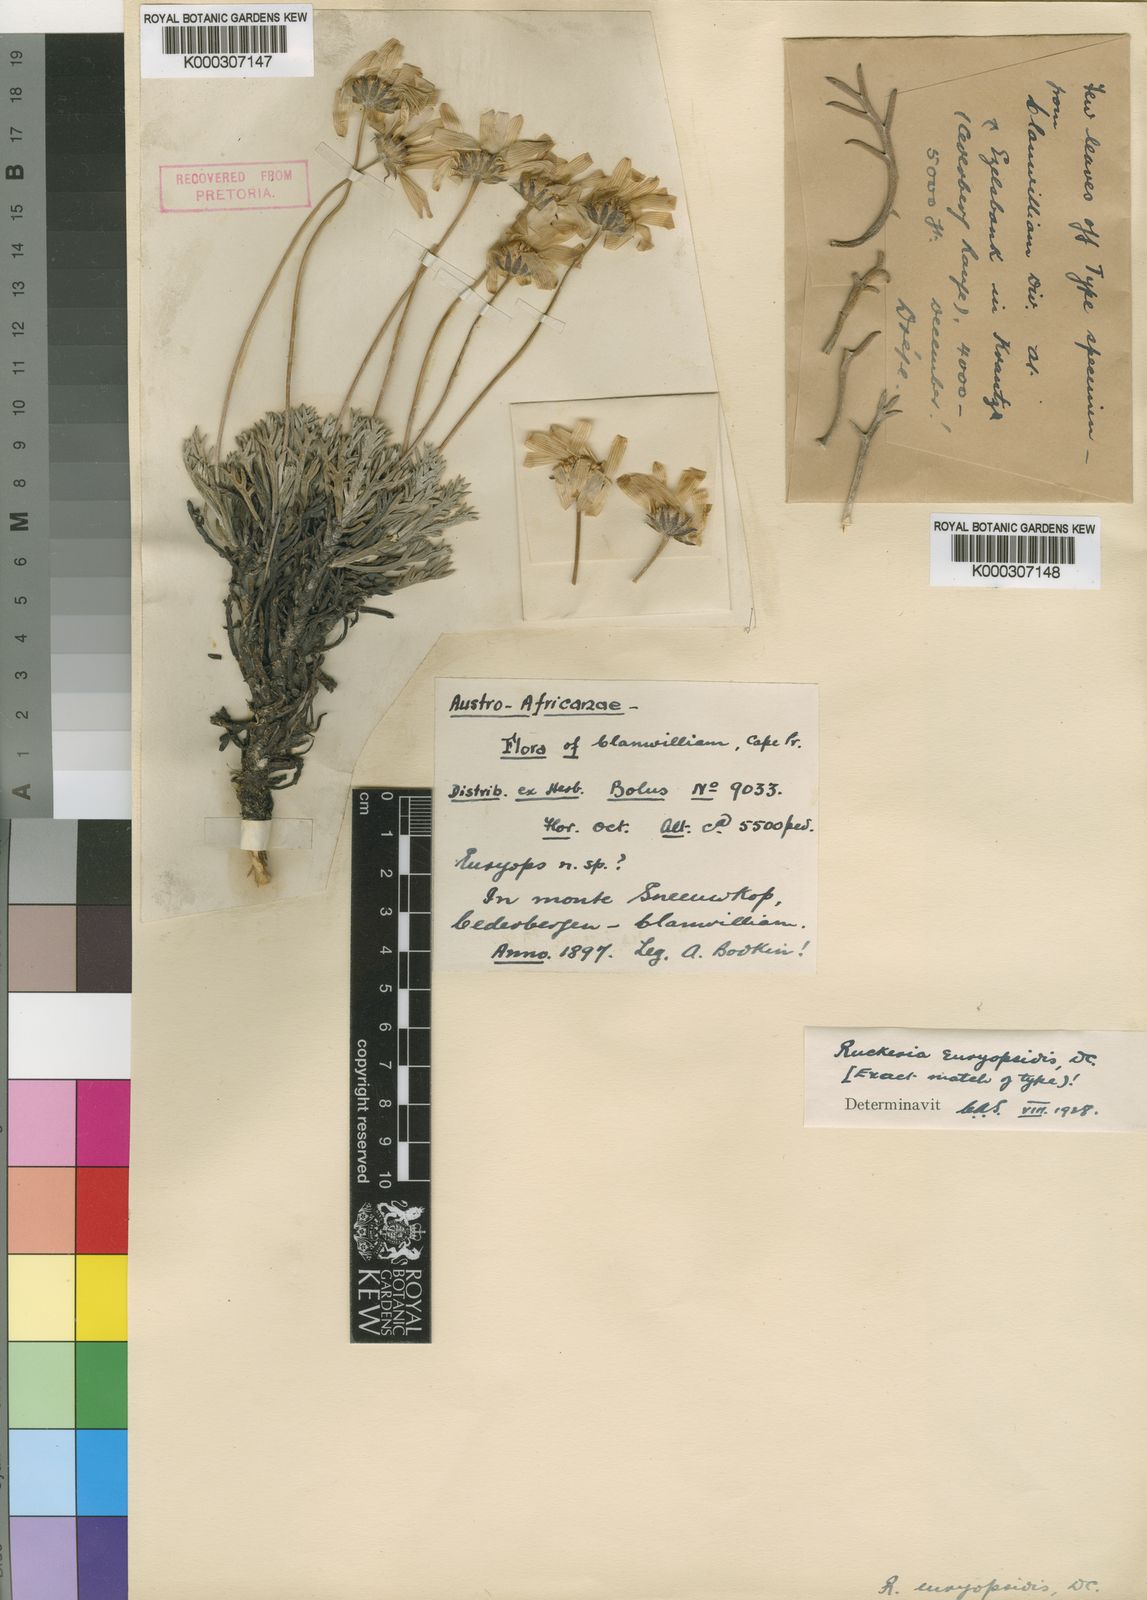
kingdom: Plantae
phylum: Tracheophyta
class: Magnoliopsida
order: Asterales
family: Asteraceae
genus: Euryops
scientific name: Euryops euryopoides
